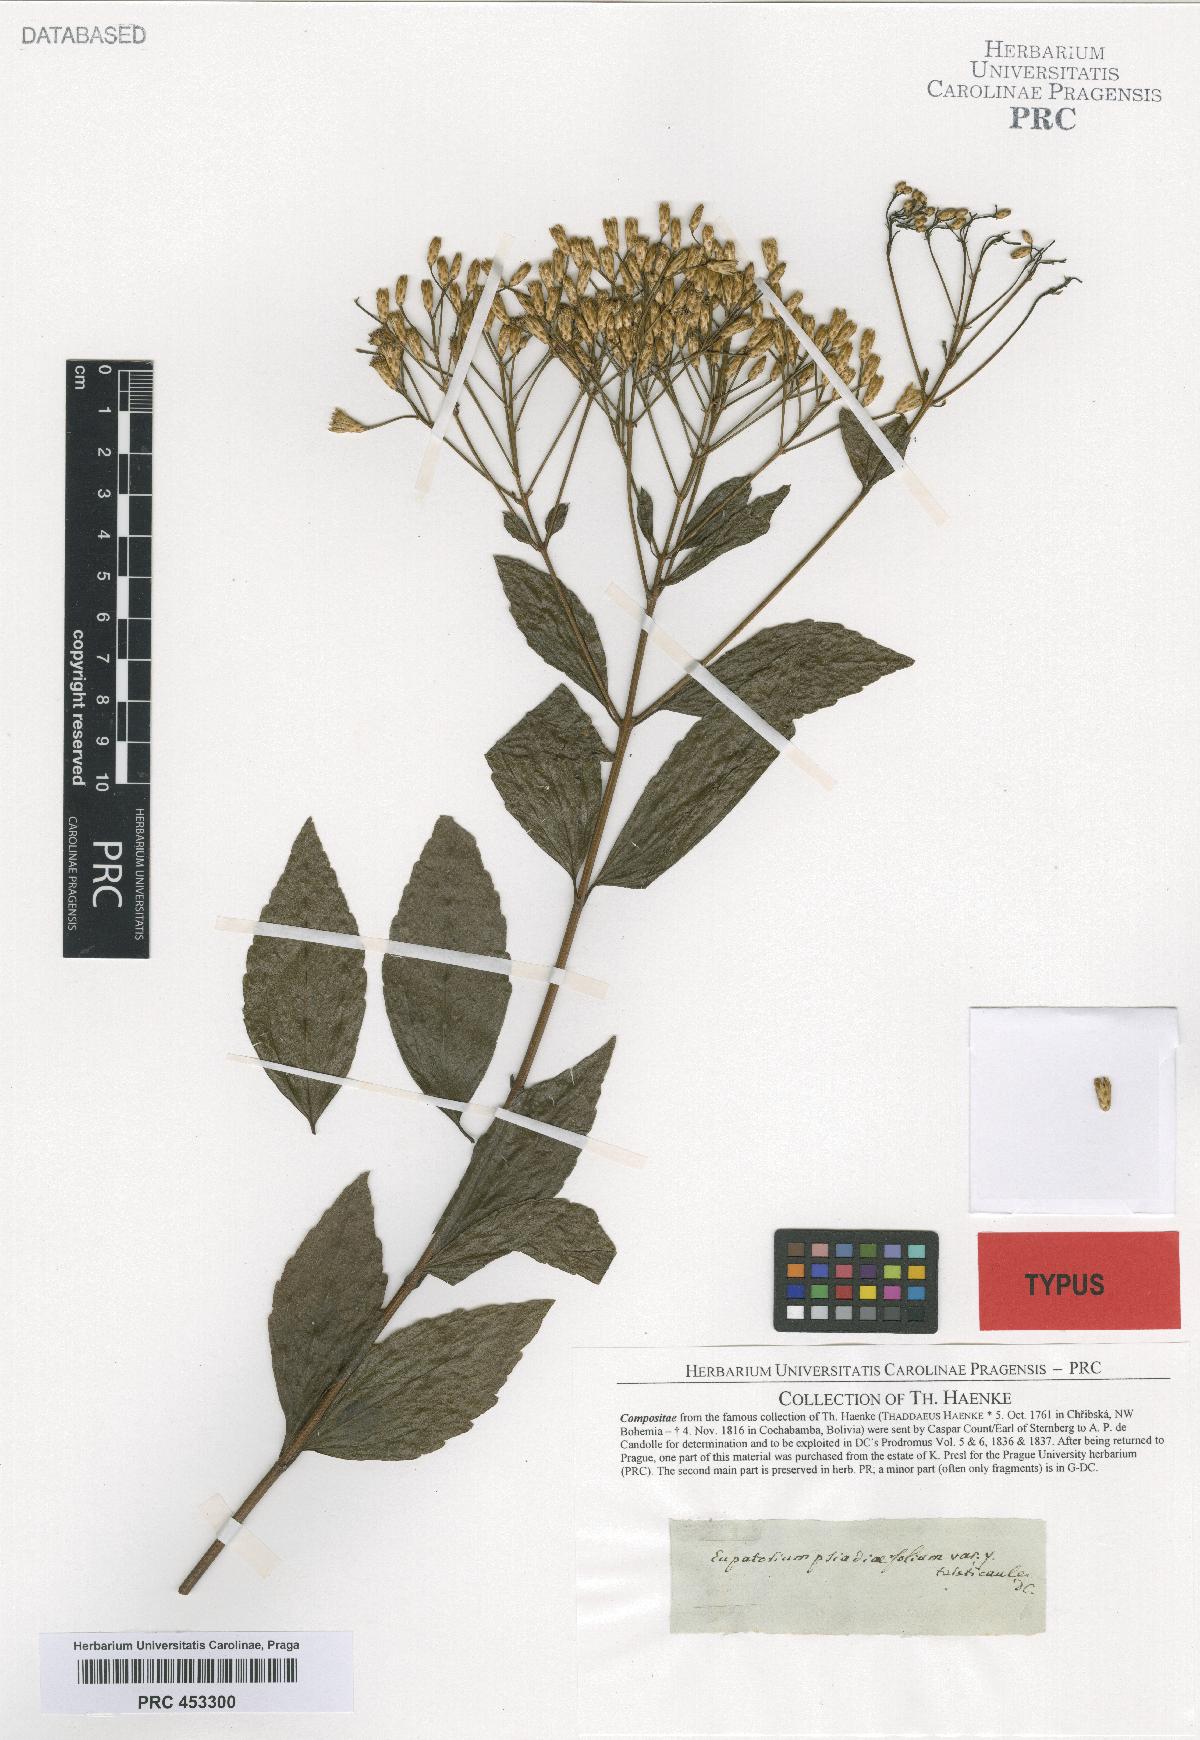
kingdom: Plantae
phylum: Tracheophyta
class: Magnoliopsida
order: Asterales
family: Asteraceae
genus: Chromolaena
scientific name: Chromolaena laevigata
